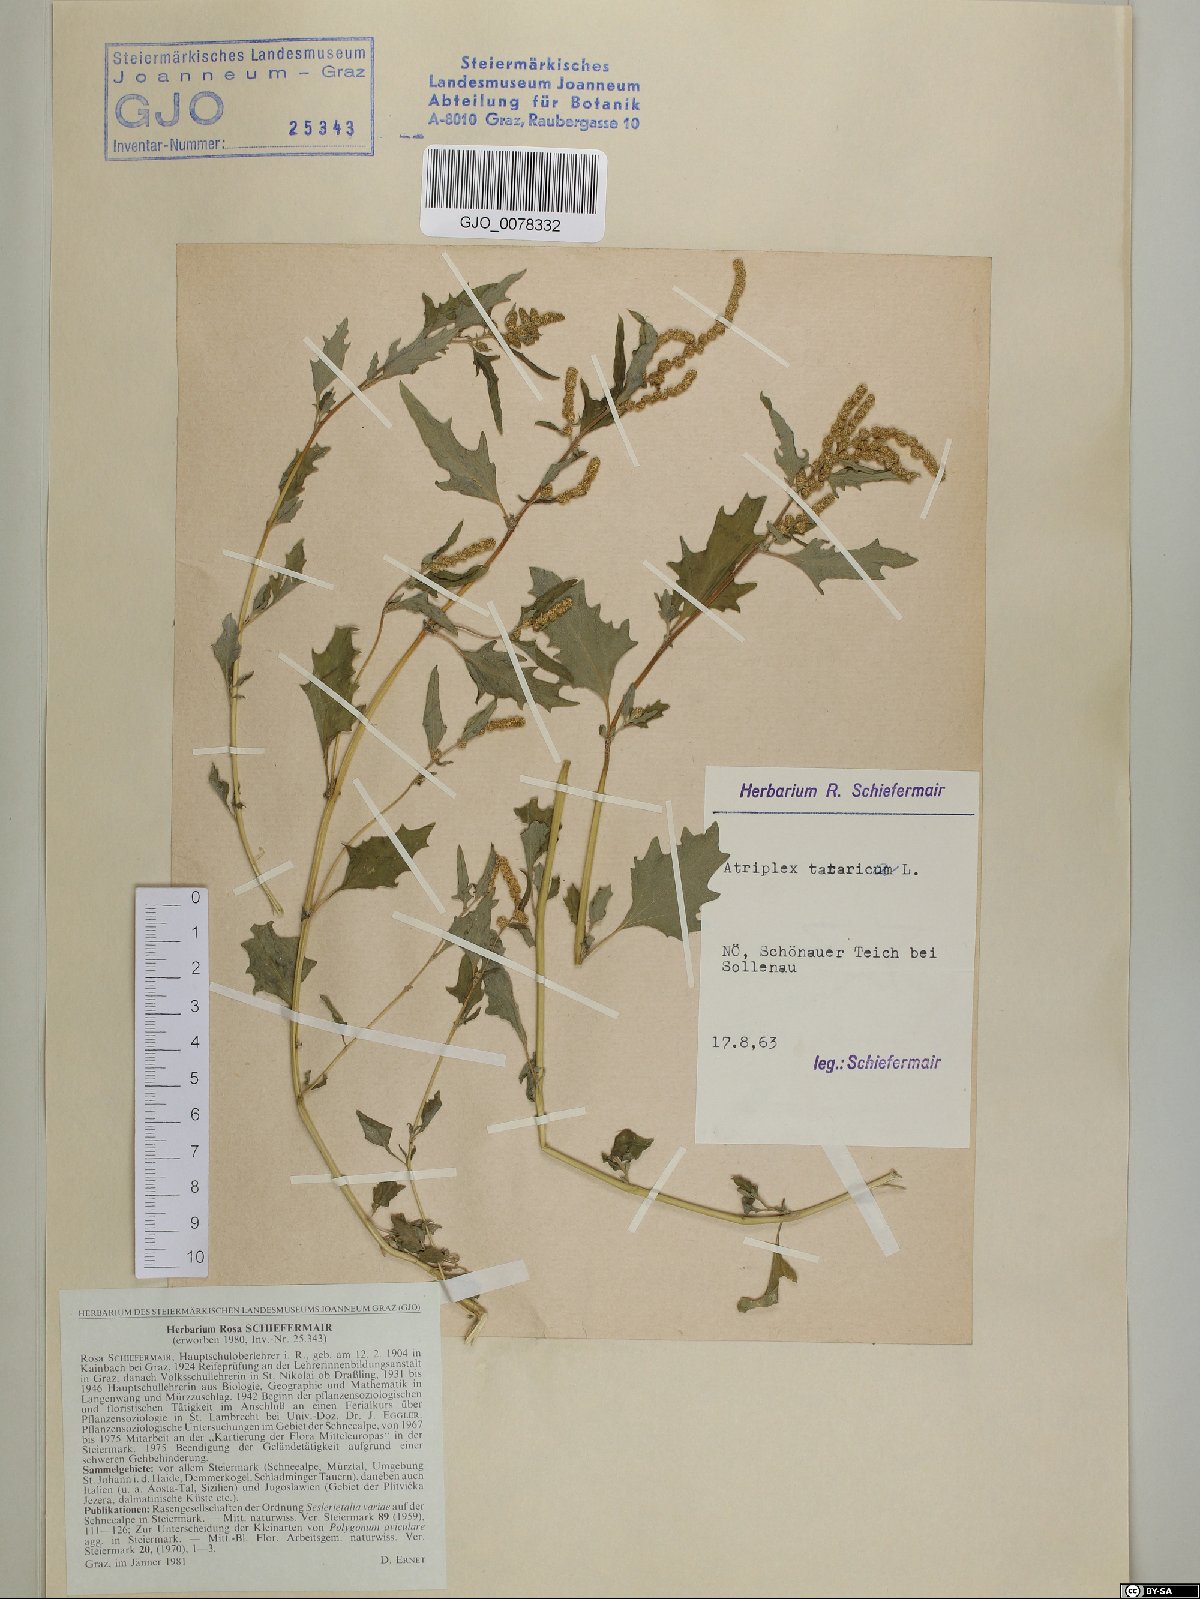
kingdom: Plantae
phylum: Tracheophyta
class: Magnoliopsida
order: Caryophyllales
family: Amaranthaceae
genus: Atriplex
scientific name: Atriplex tatarica
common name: Tatarian orache
